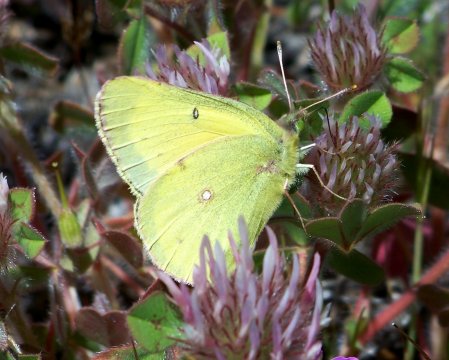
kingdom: Animalia
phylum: Arthropoda
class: Insecta
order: Lepidoptera
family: Pieridae
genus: Colias
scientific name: Colias eurytheme
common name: Orange Sulphur
